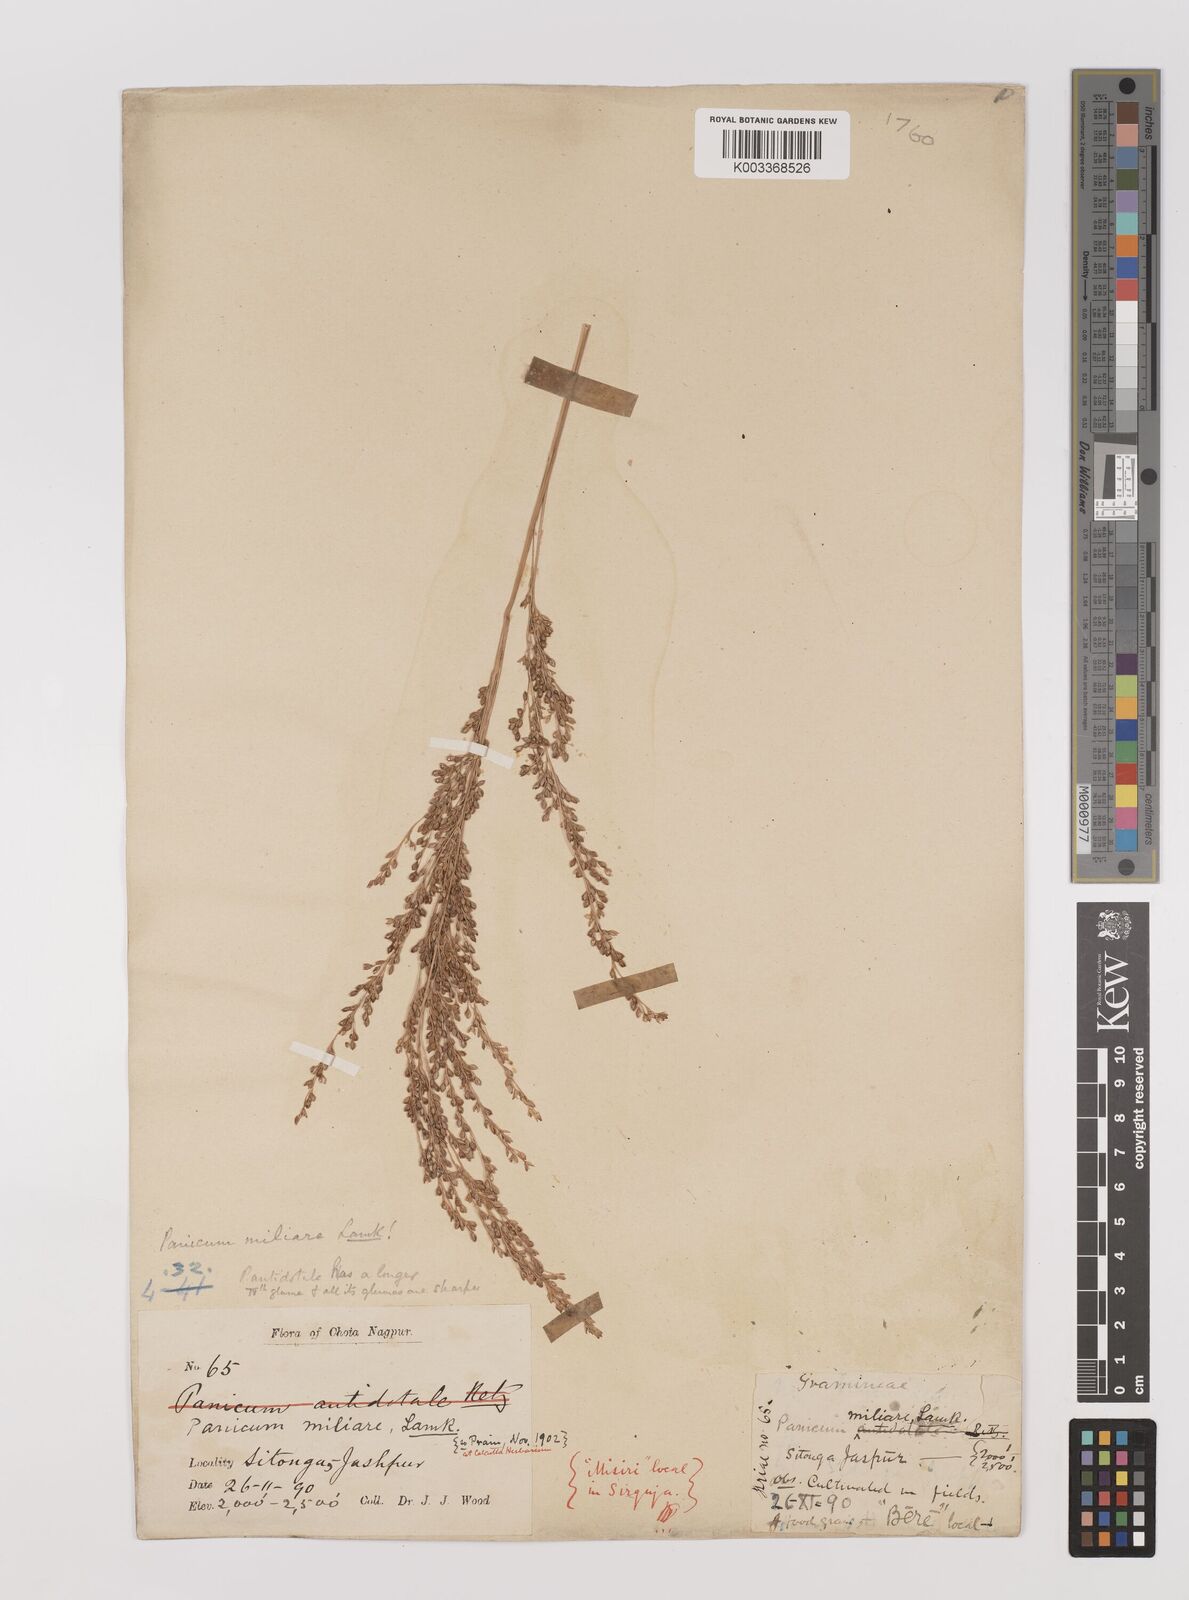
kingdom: Plantae
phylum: Tracheophyta
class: Liliopsida
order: Poales
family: Poaceae
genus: Panicum
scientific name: Panicum sumatrense
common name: Little millet
